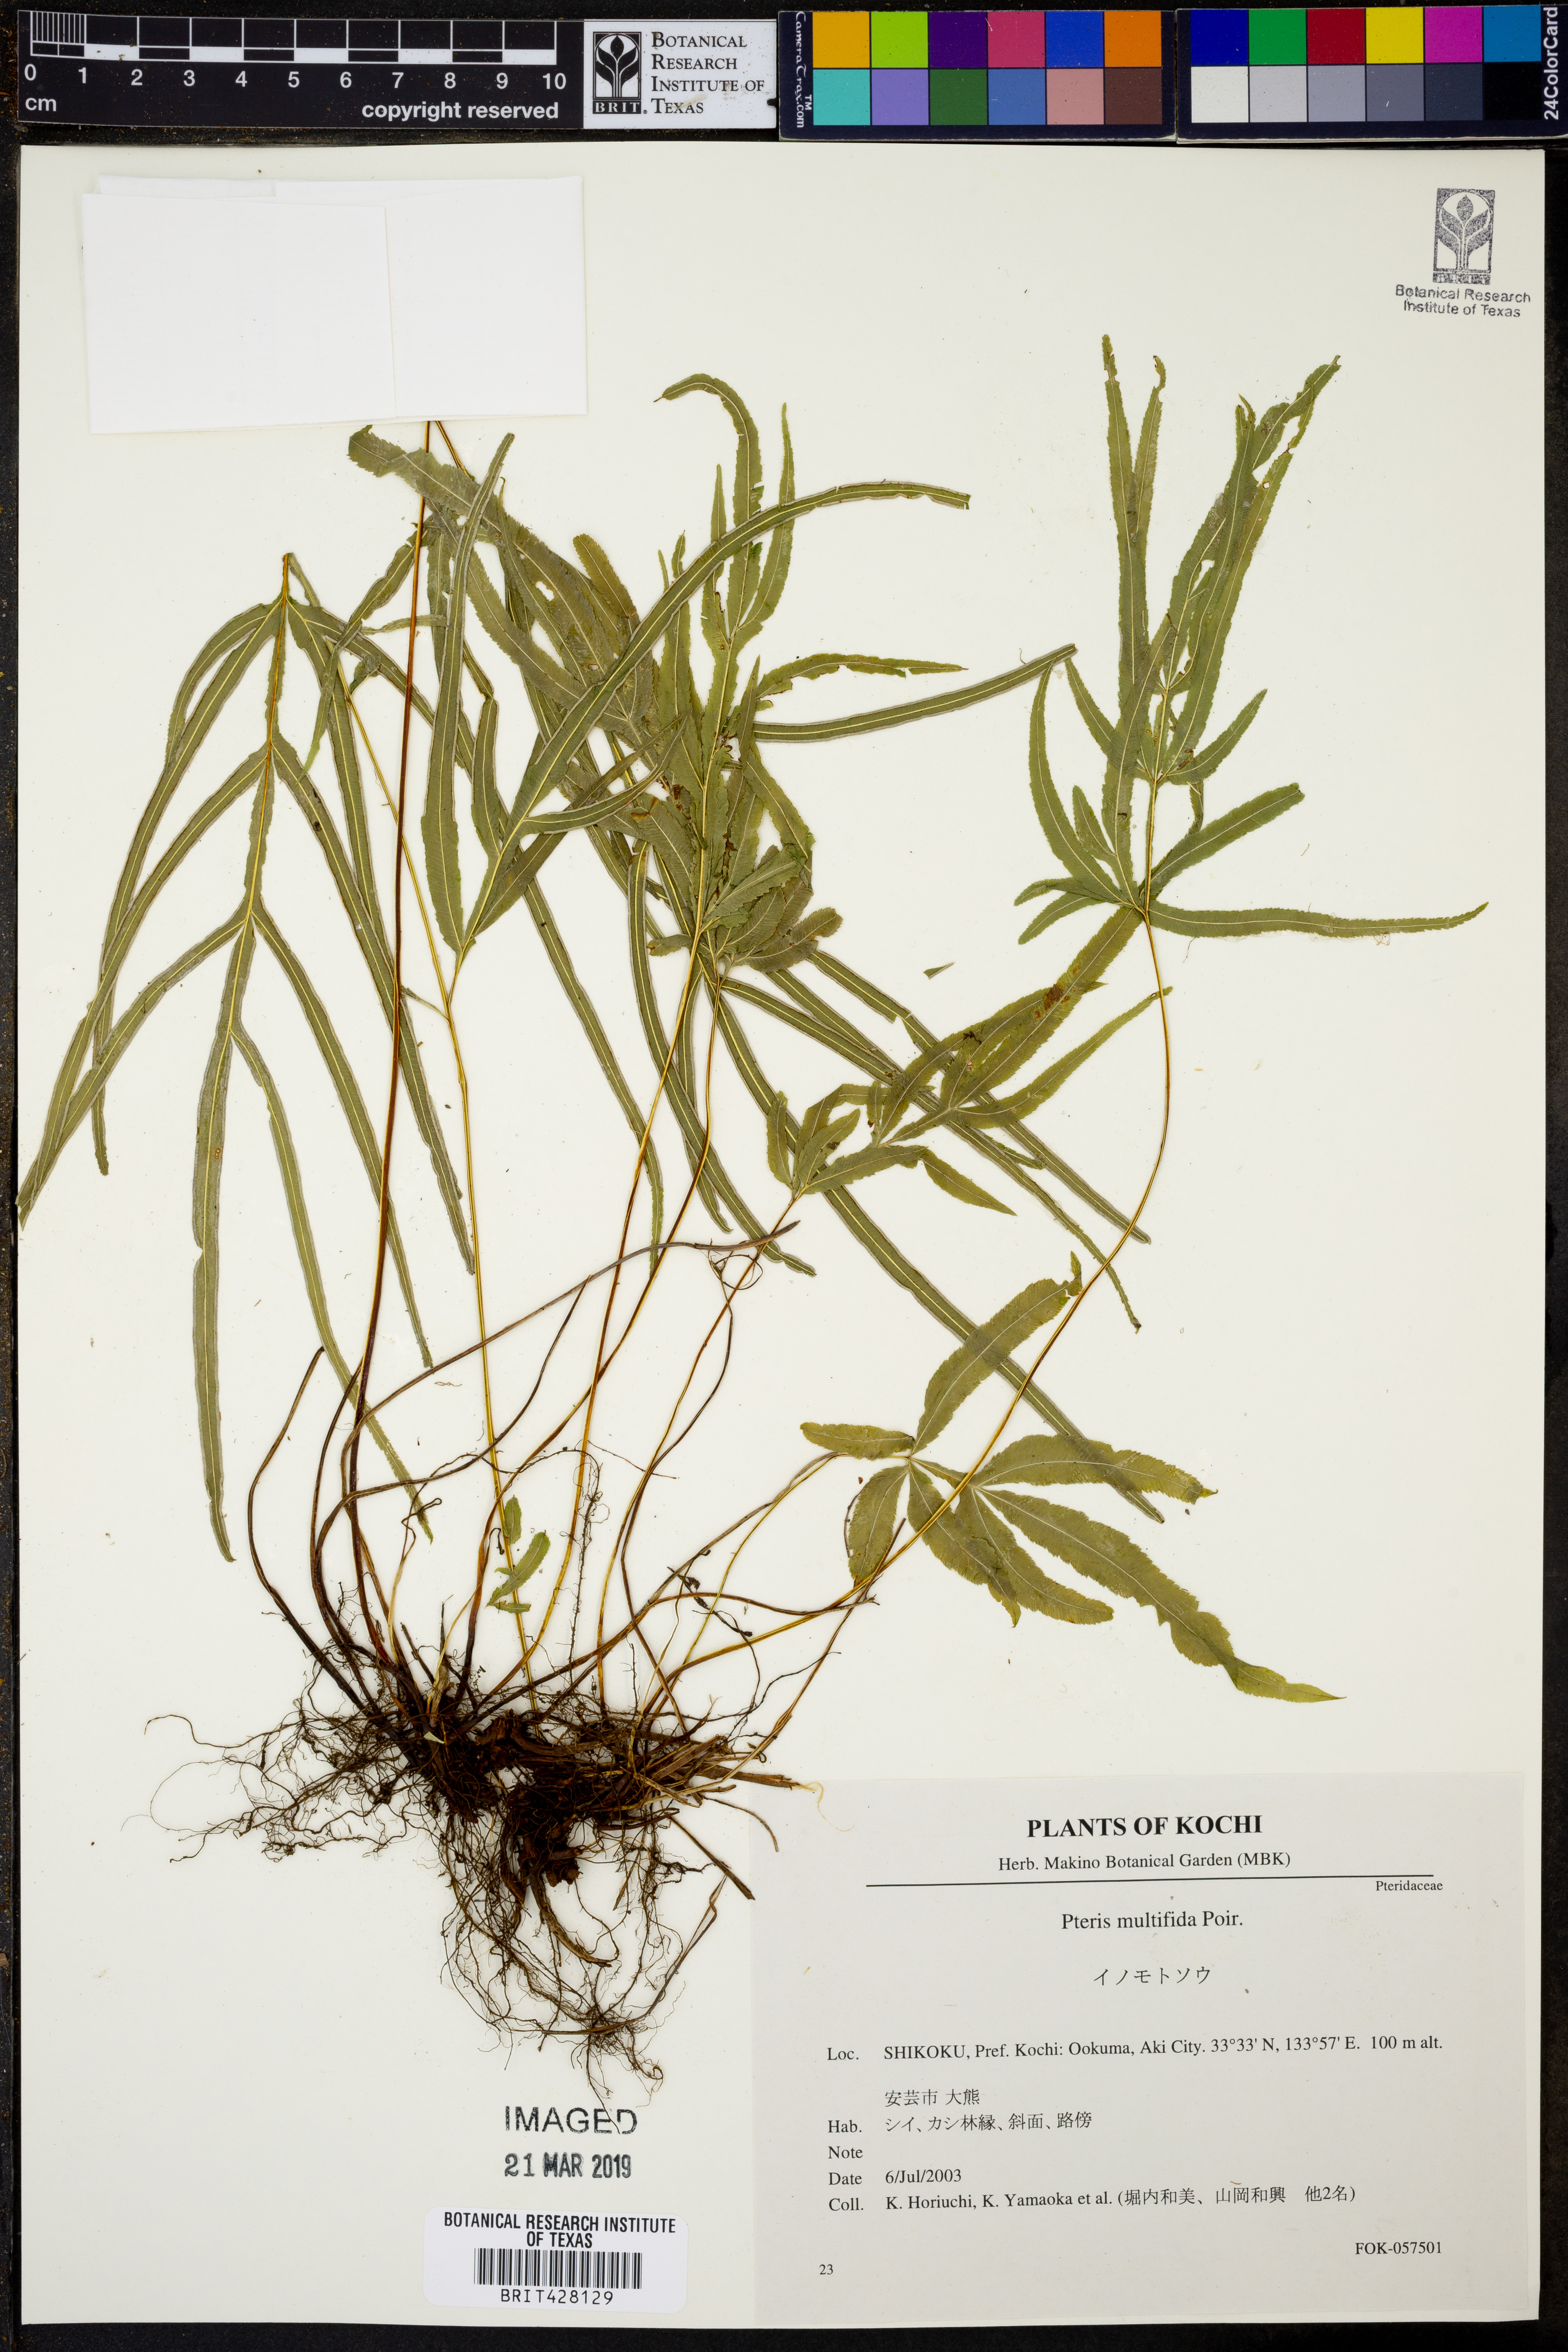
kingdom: Plantae
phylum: Tracheophyta
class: Polypodiopsida
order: Polypodiales
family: Pteridaceae
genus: Pteris
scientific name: Pteris multifida
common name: Spider brake
